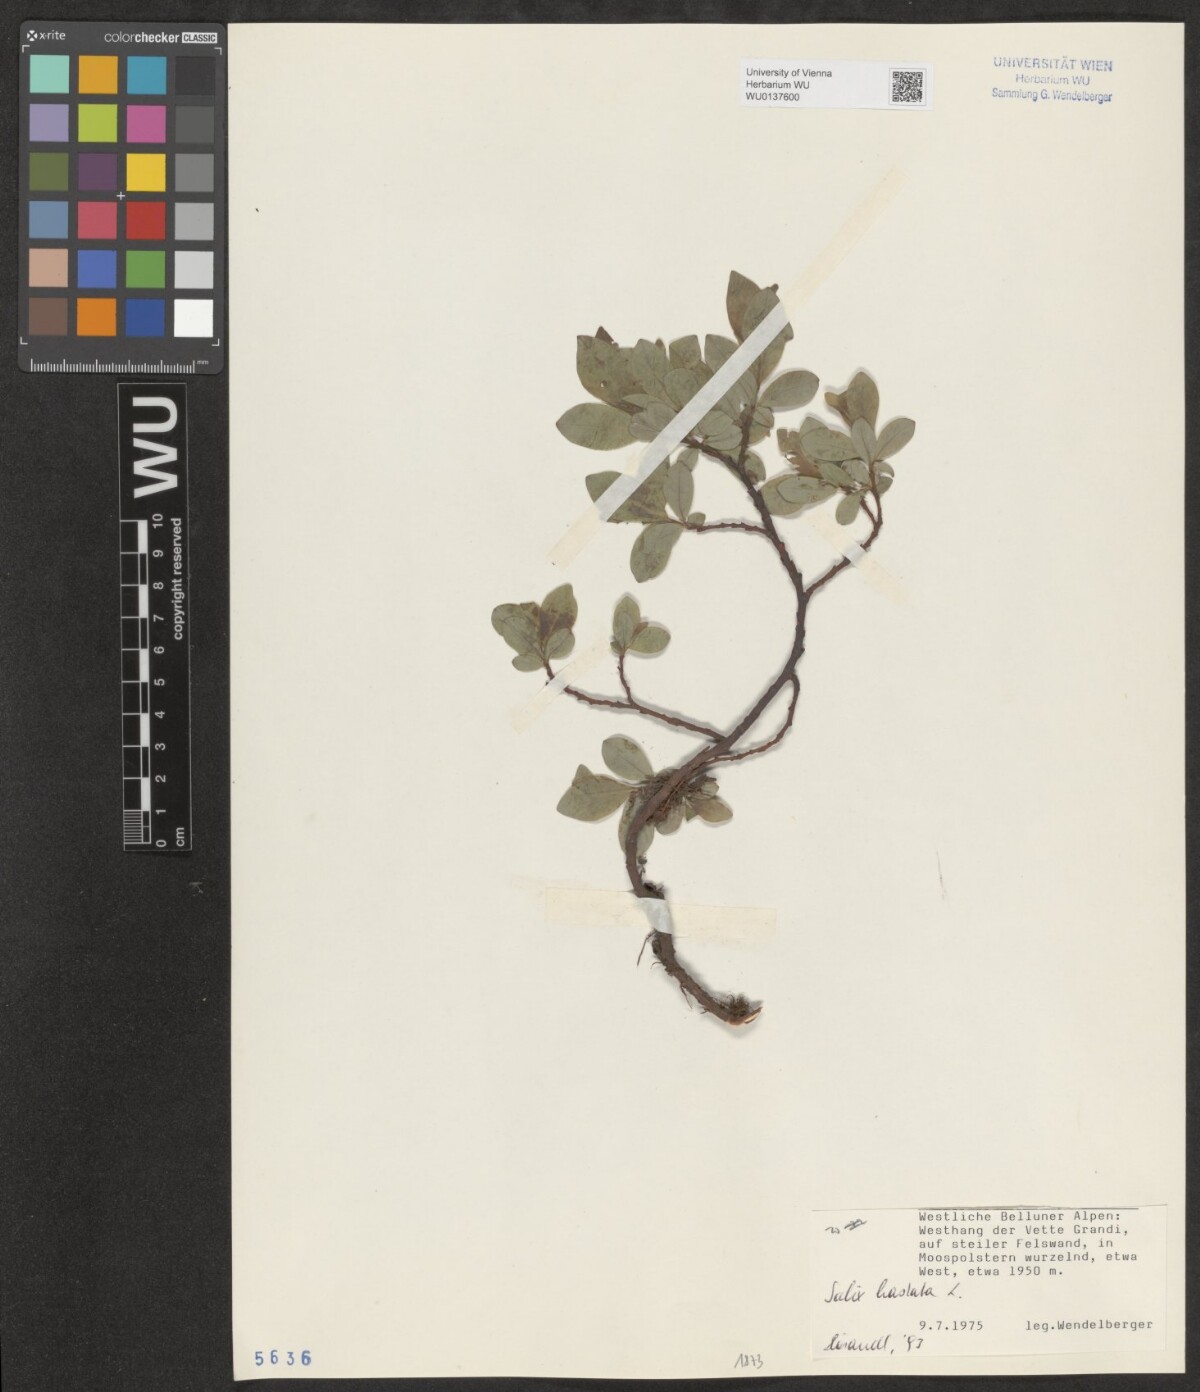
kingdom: Plantae
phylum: Tracheophyta
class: Magnoliopsida
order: Malpighiales
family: Salicaceae
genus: Salix
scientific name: Salix hastata
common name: Halberd willow
